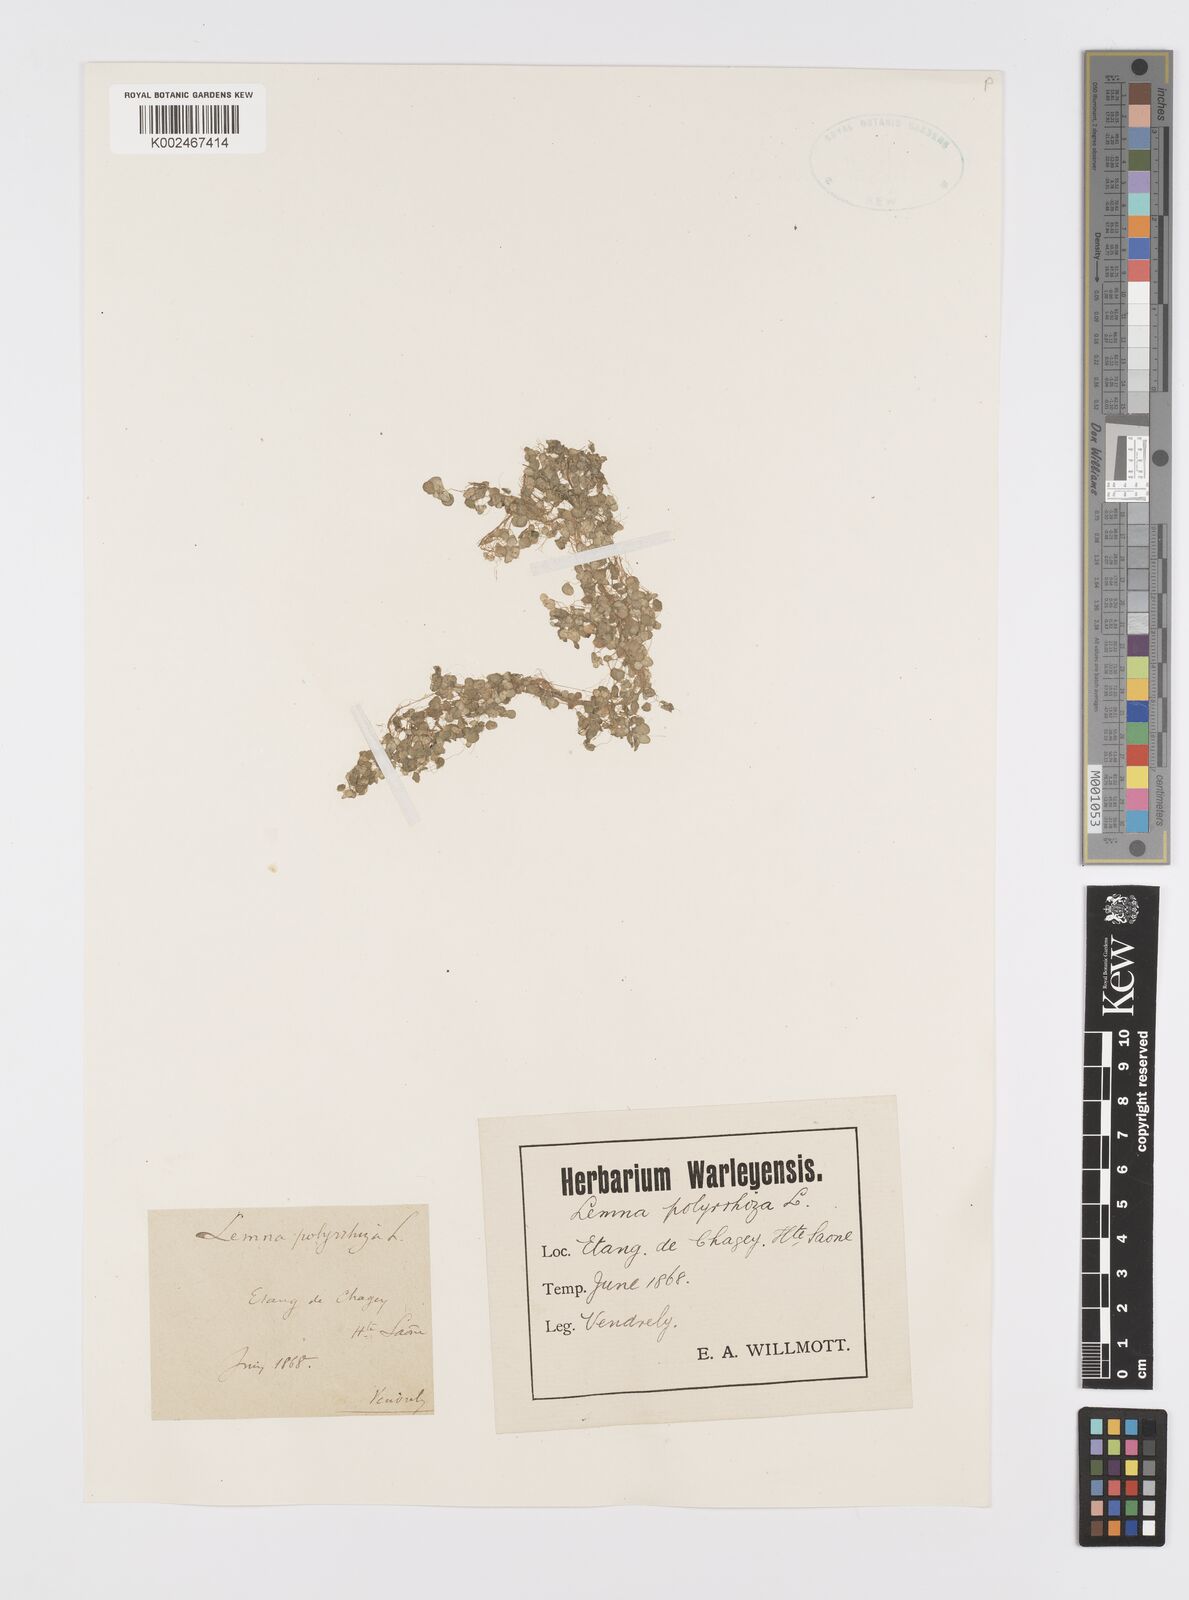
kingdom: Plantae
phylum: Tracheophyta
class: Liliopsida
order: Alismatales
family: Araceae
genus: Spirodela
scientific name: Spirodela polyrhiza
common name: Great duckweed
